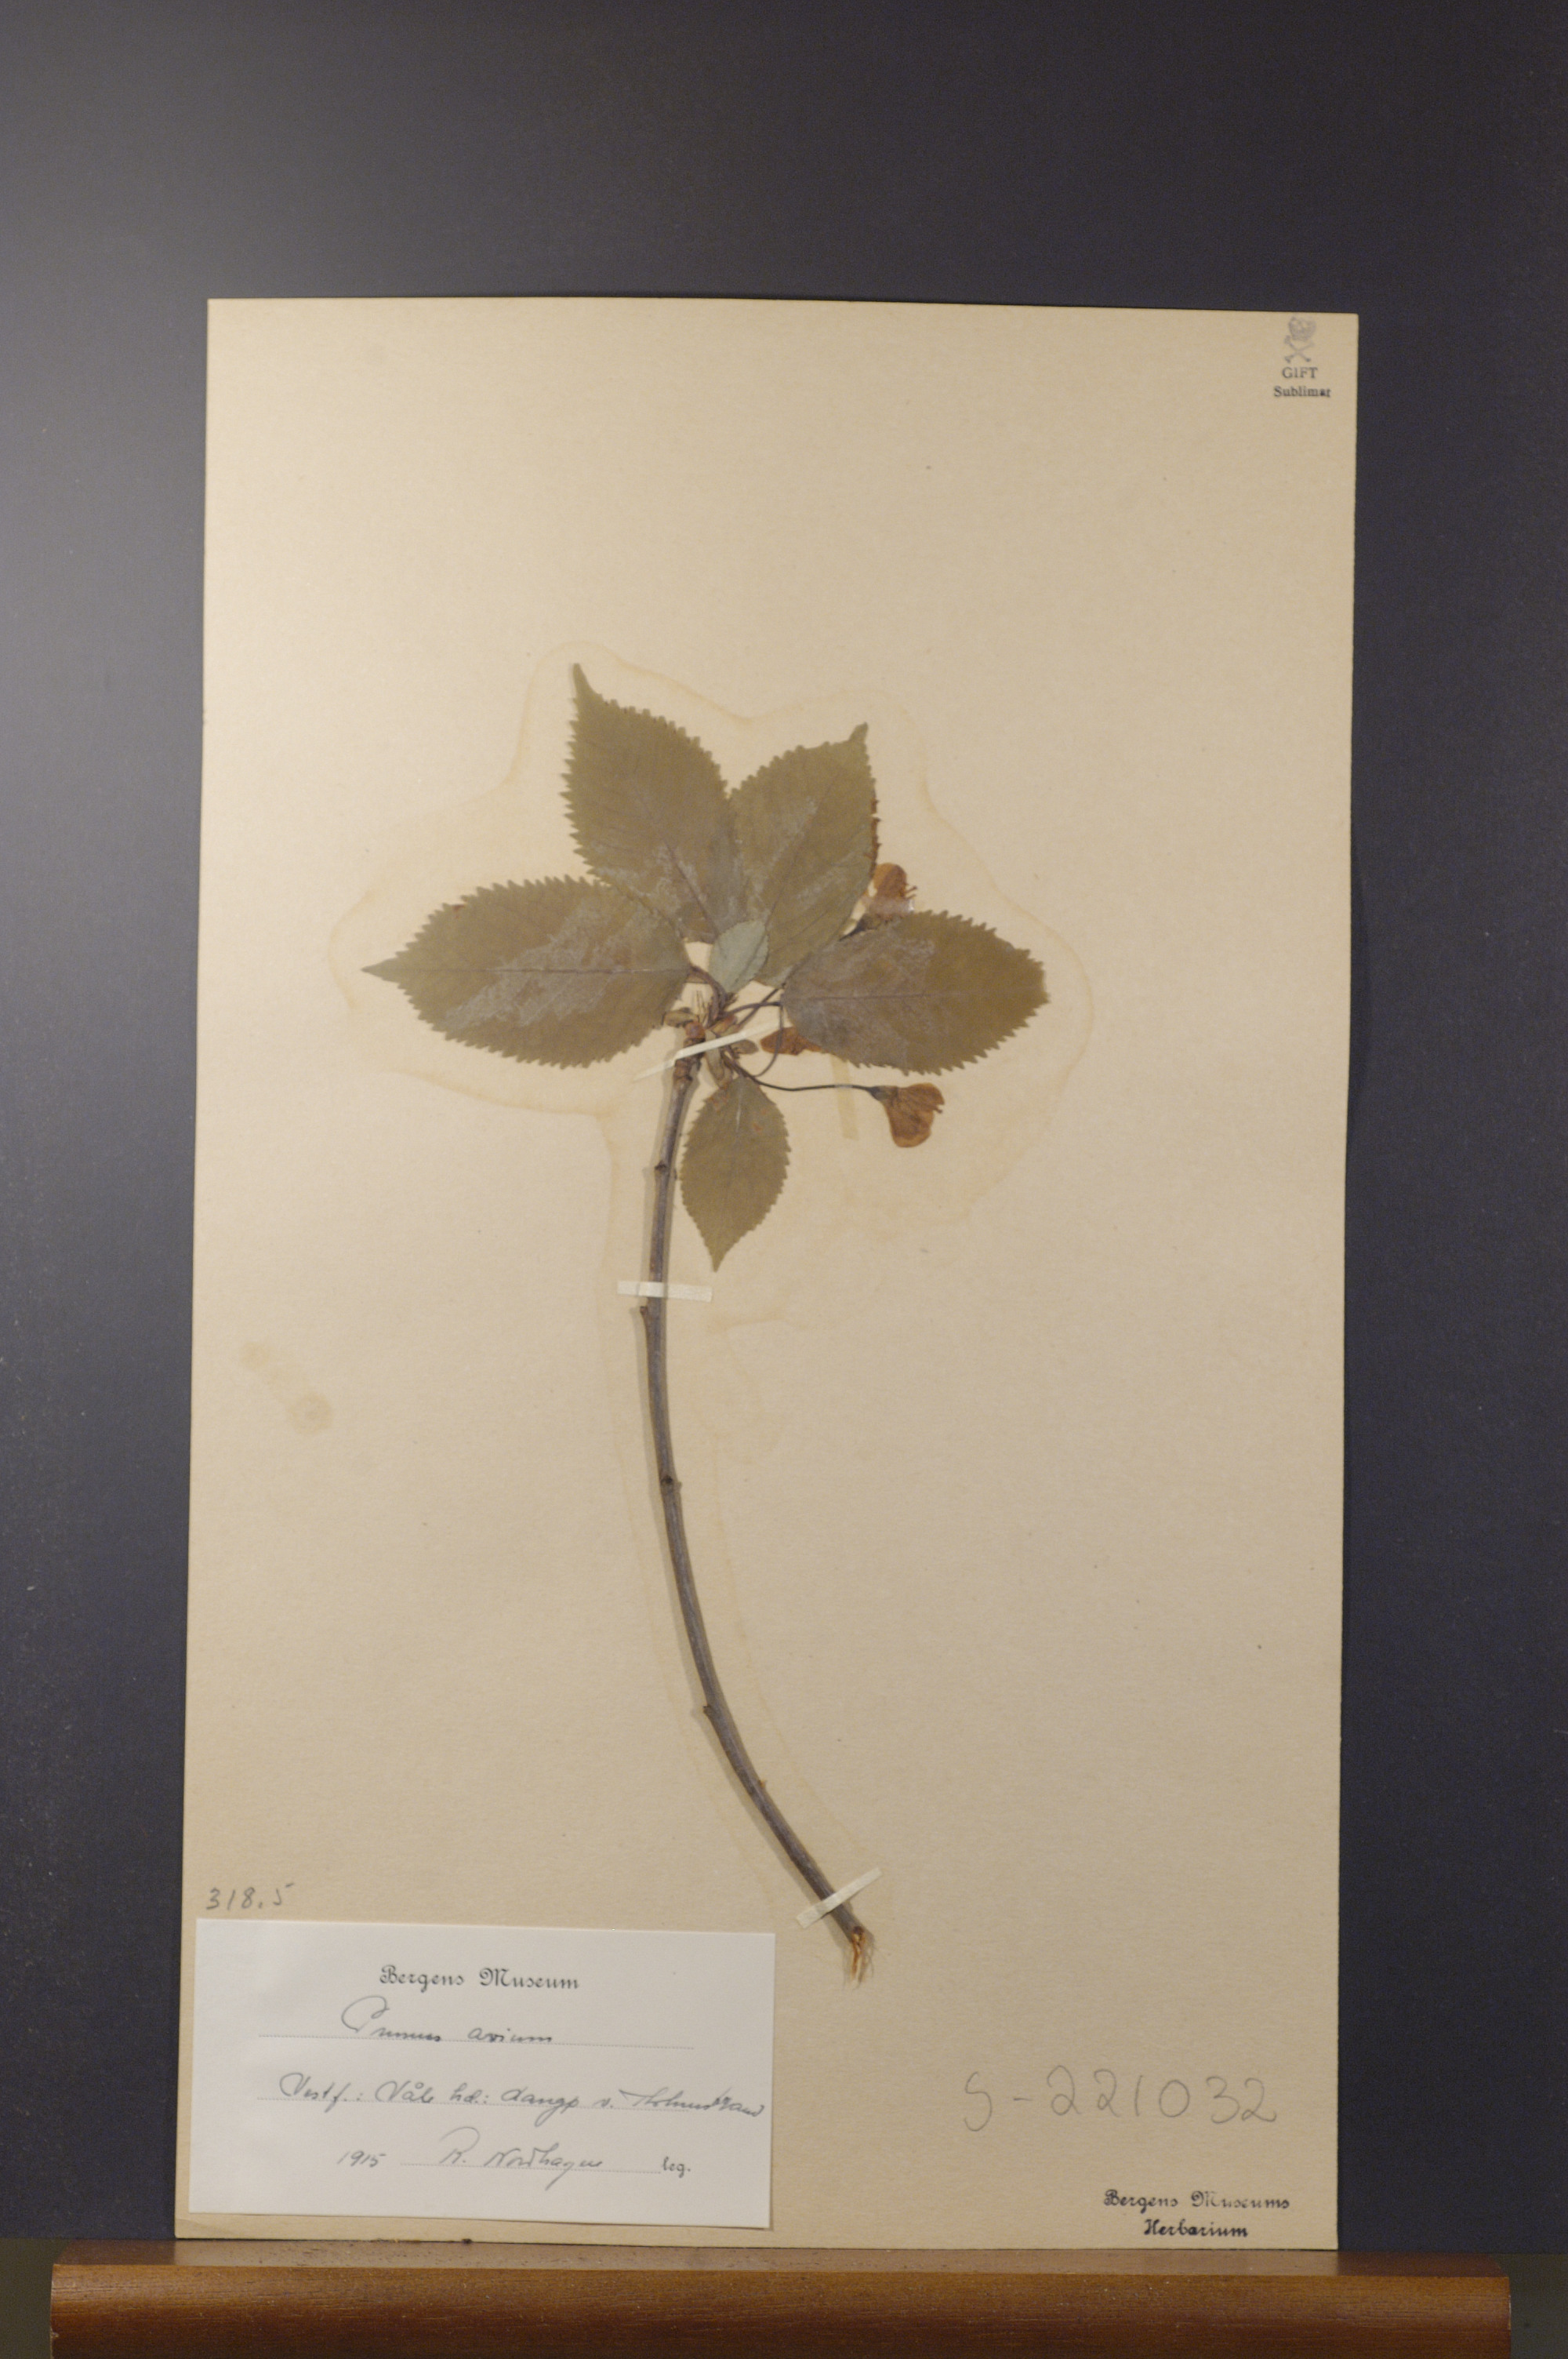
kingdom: Plantae
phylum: Tracheophyta
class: Magnoliopsida
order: Rosales
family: Rosaceae
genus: Prunus
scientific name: Prunus avium
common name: Sweet cherry
